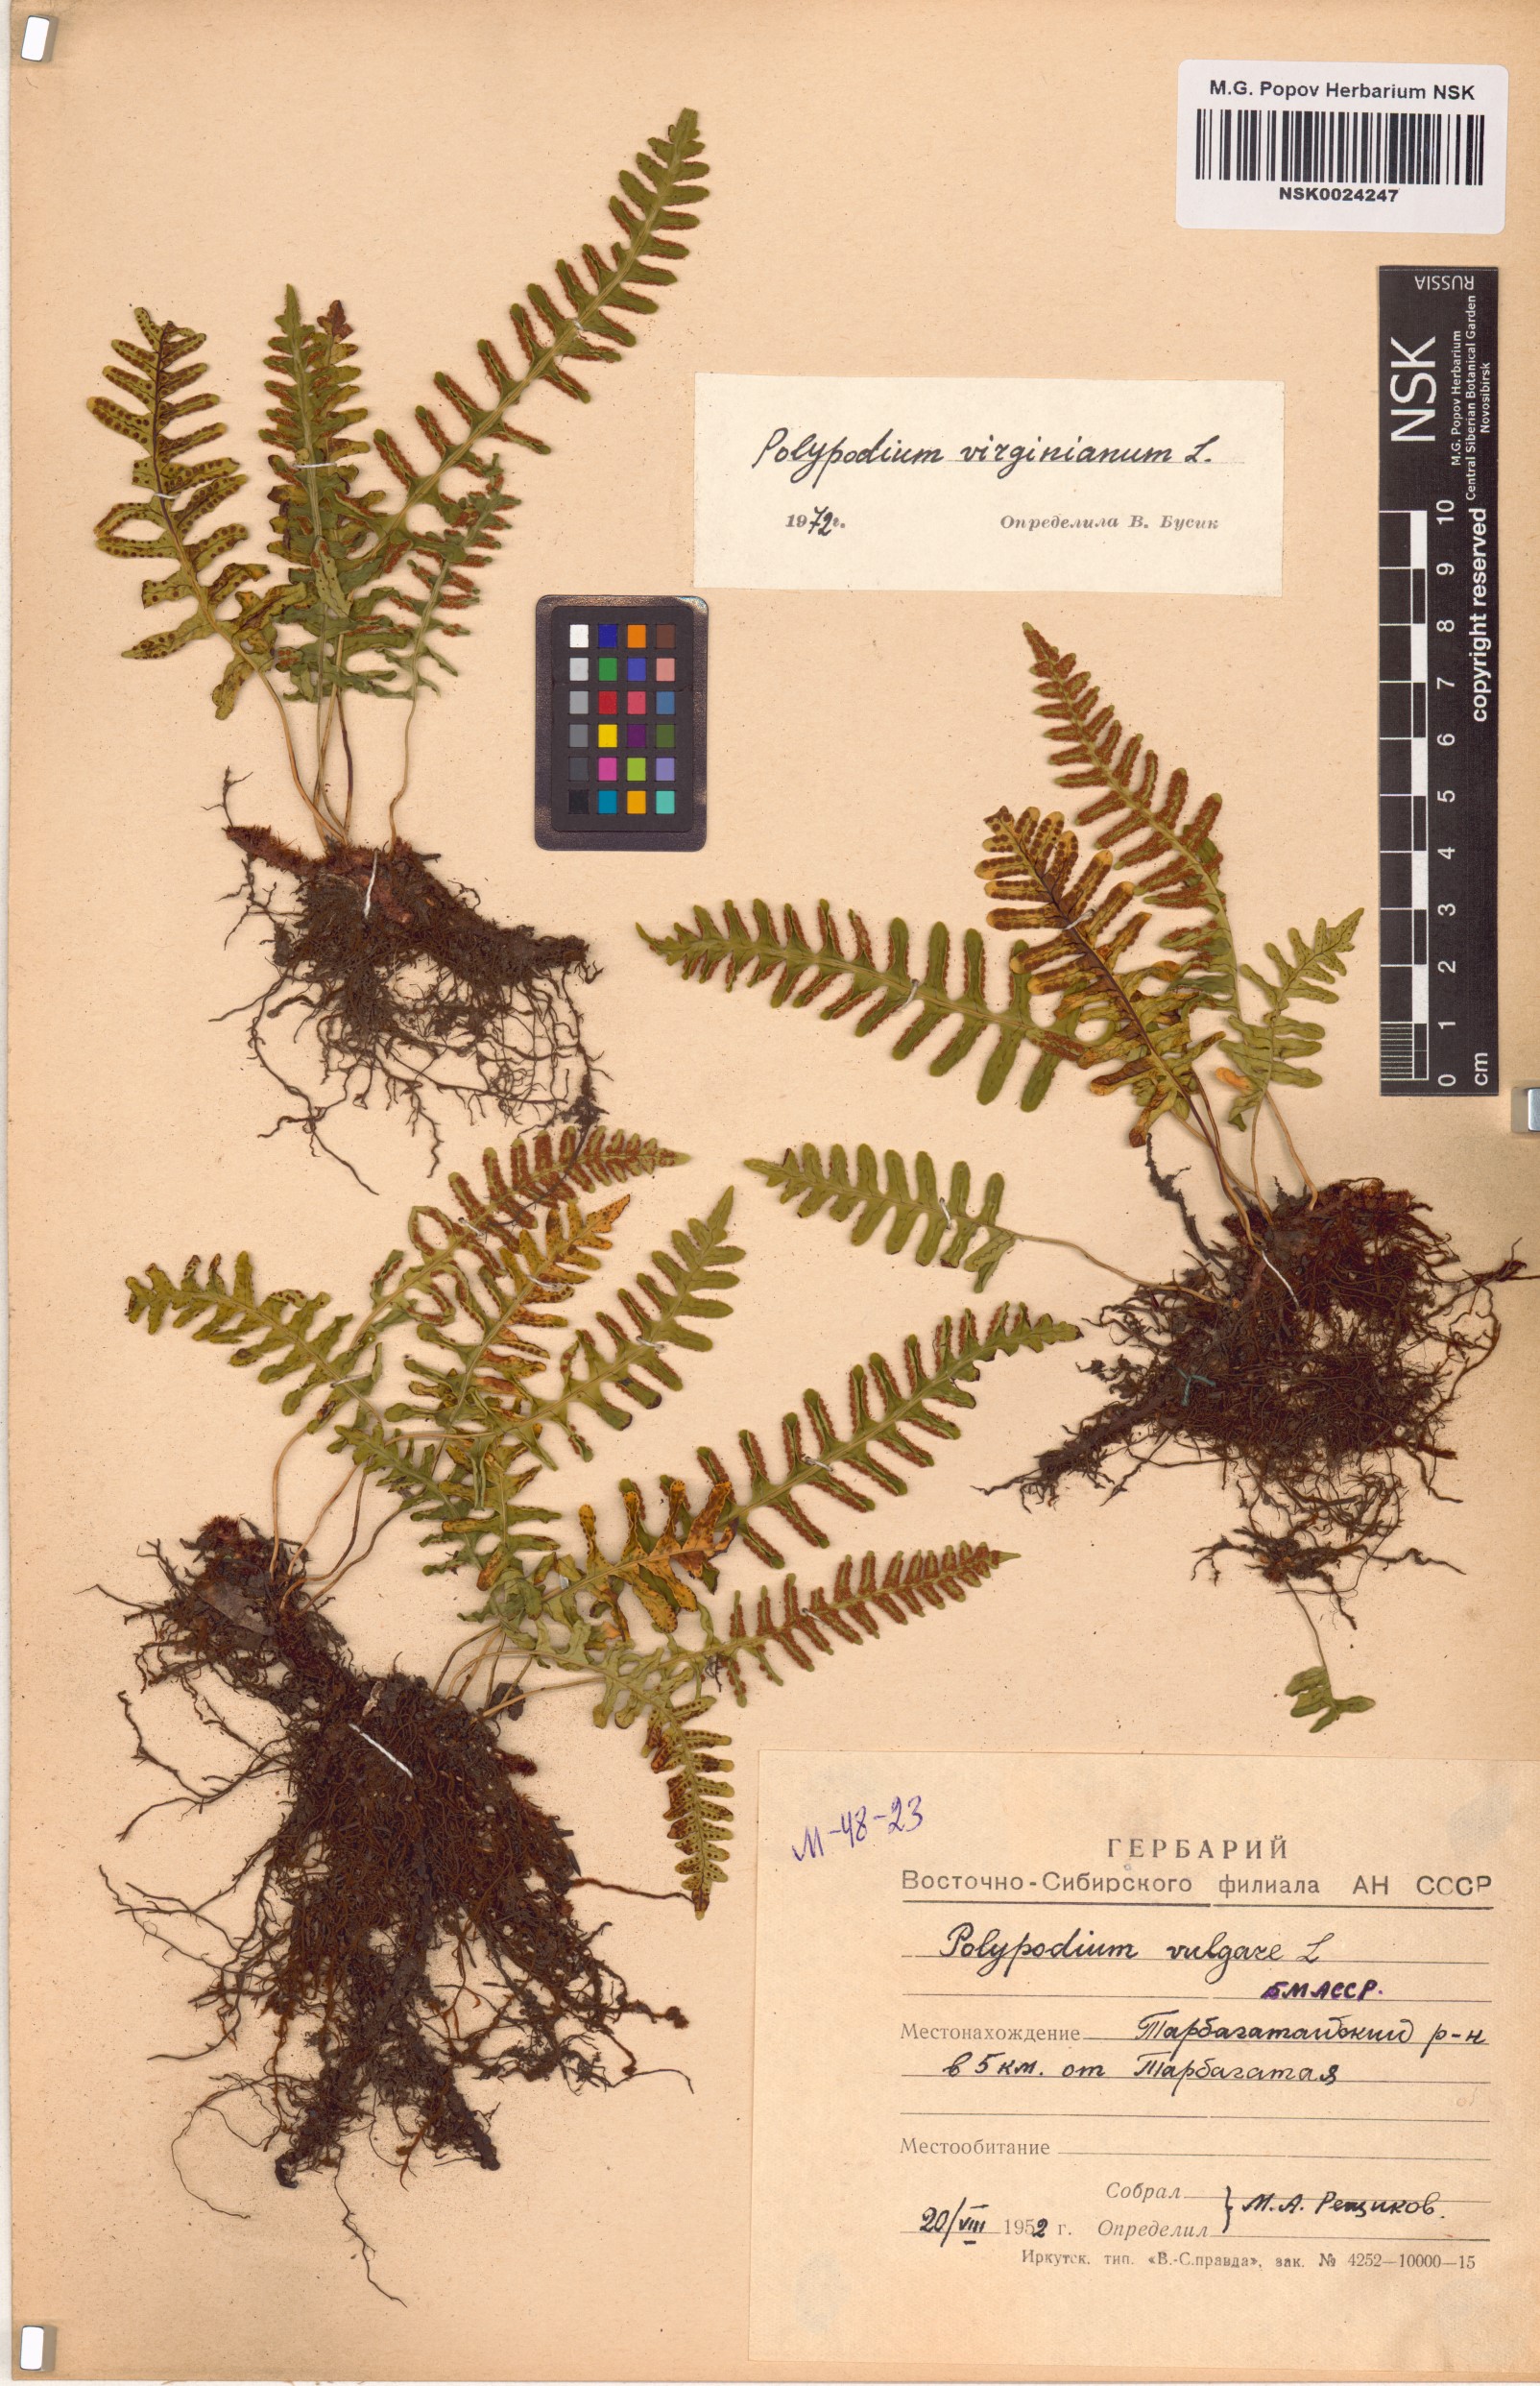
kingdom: Plantae
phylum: Tracheophyta
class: Polypodiopsida
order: Polypodiales
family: Polypodiaceae
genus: Polypodium
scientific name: Polypodium virginianum
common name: American wall fern
